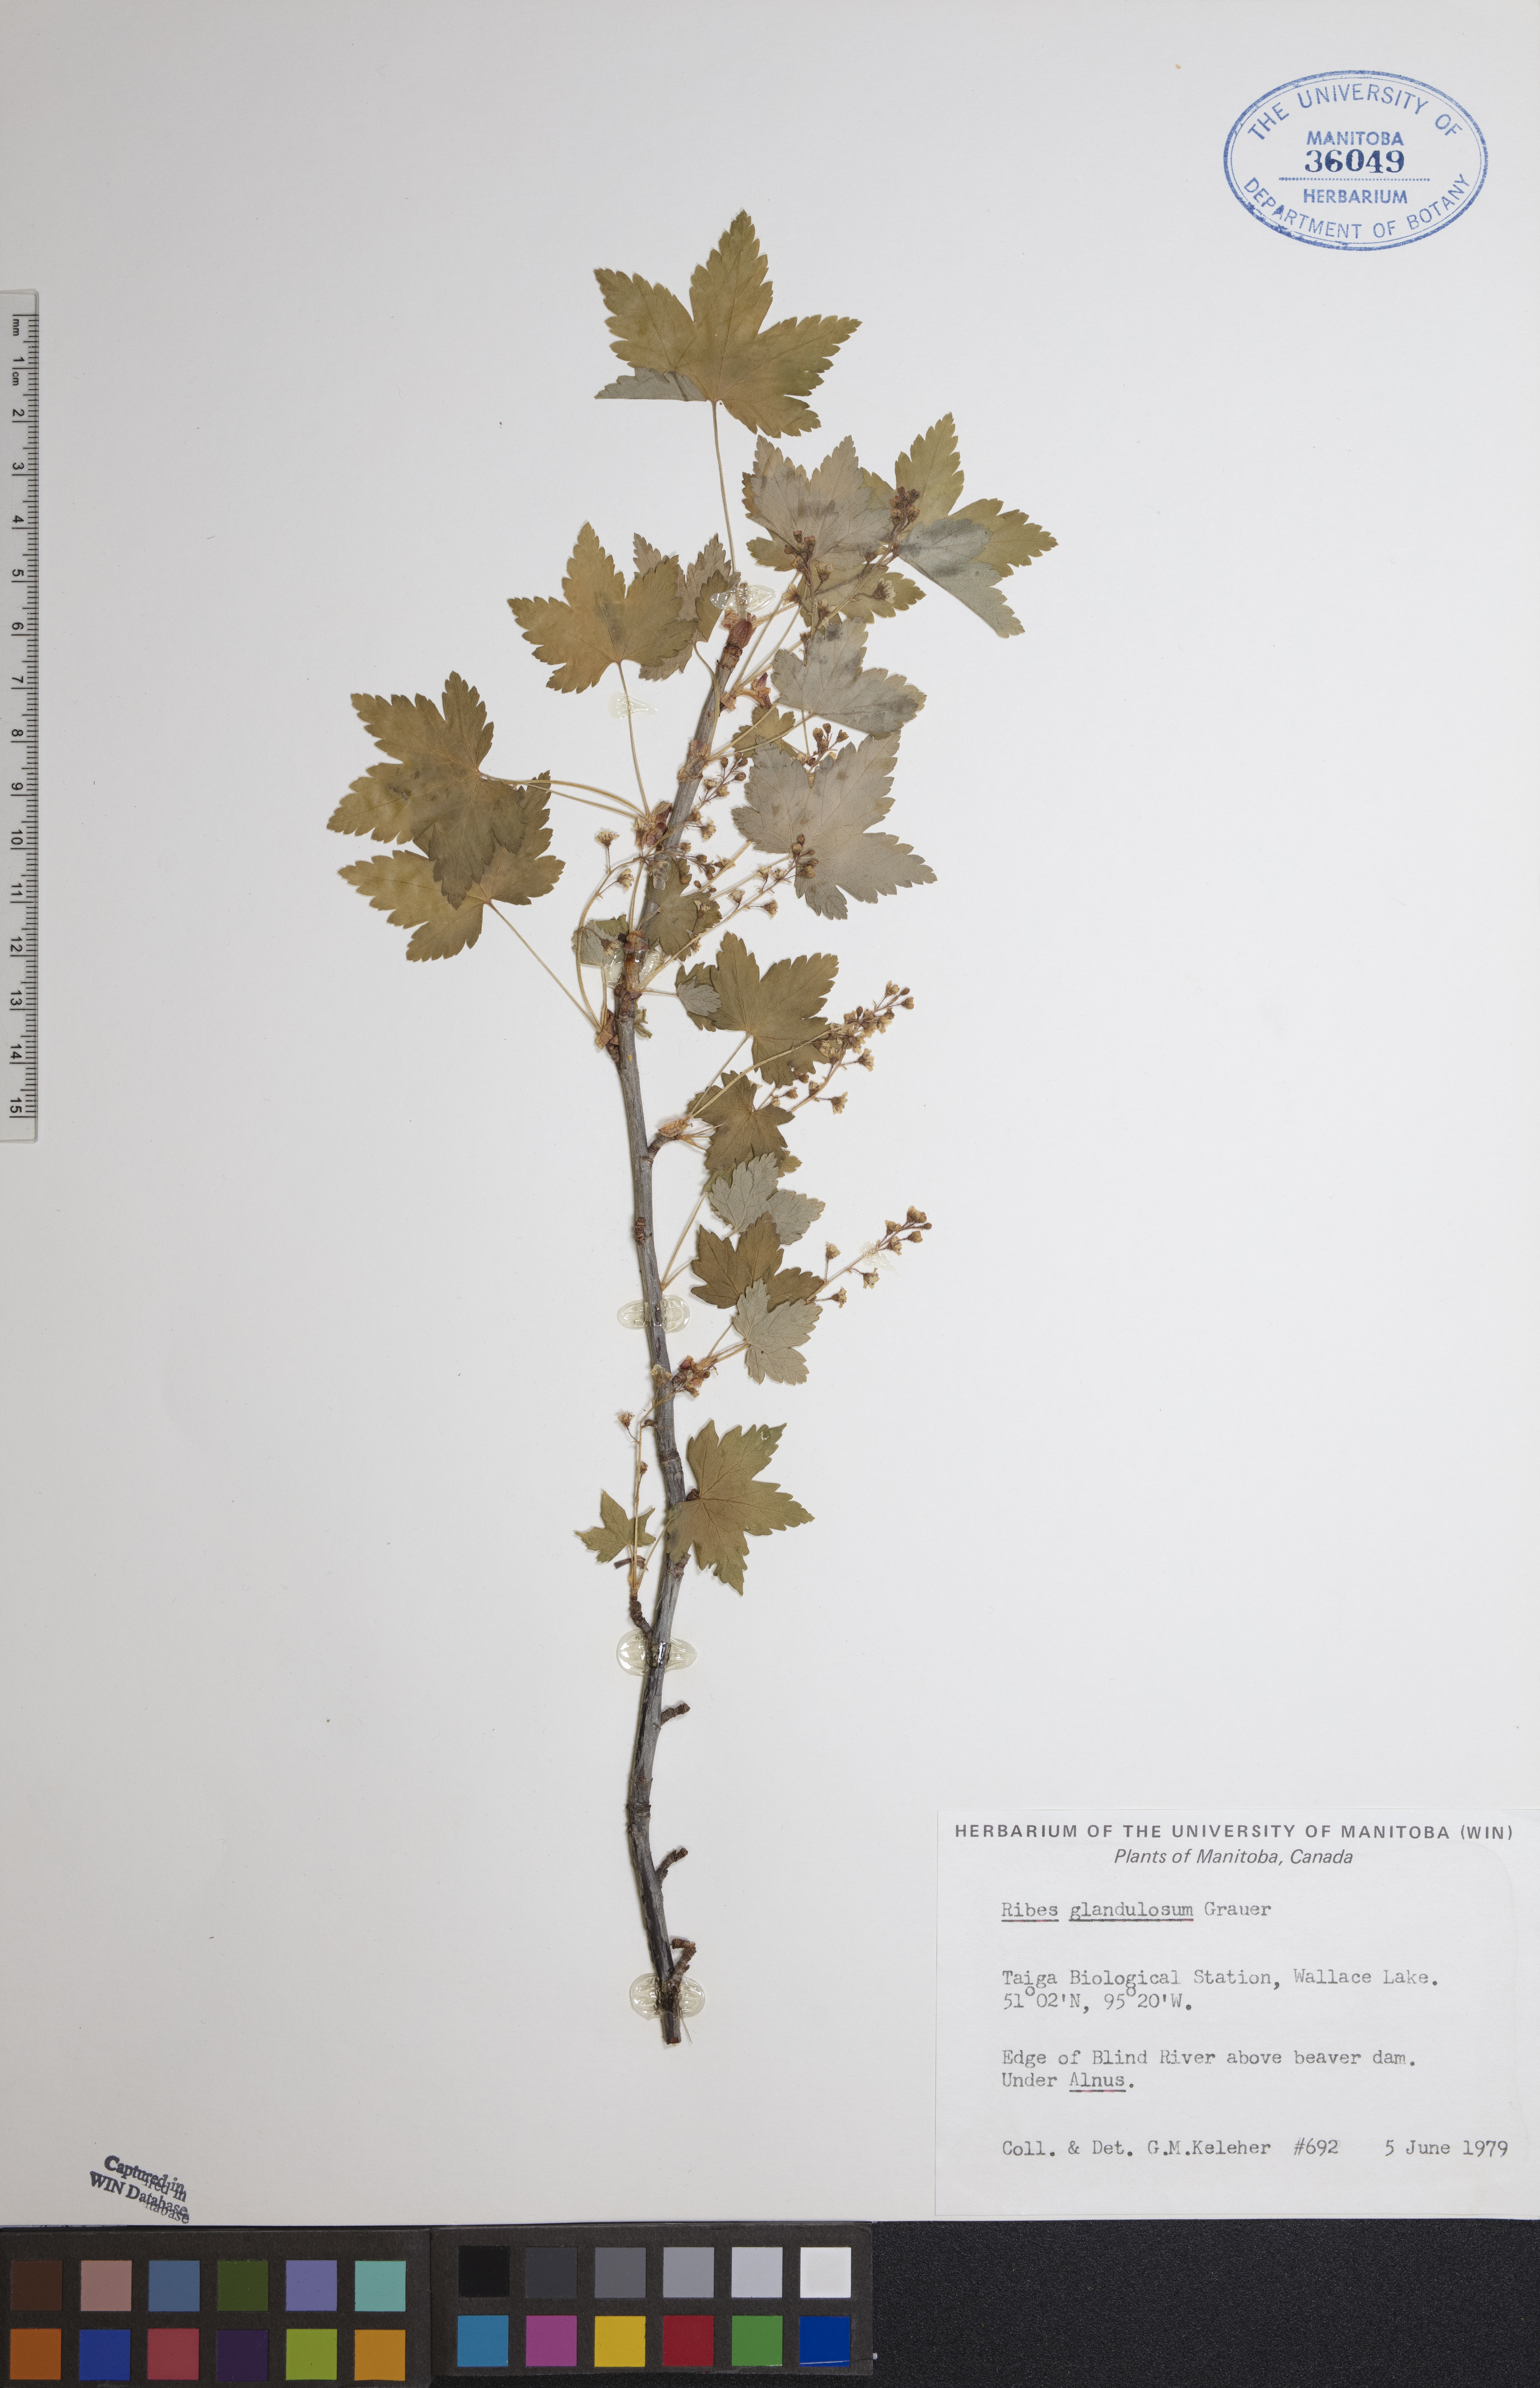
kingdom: Plantae
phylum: Tracheophyta
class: Magnoliopsida
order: Saxifragales
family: Grossulariaceae
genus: Ribes
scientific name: Ribes glandulosum
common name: Skunk currant
